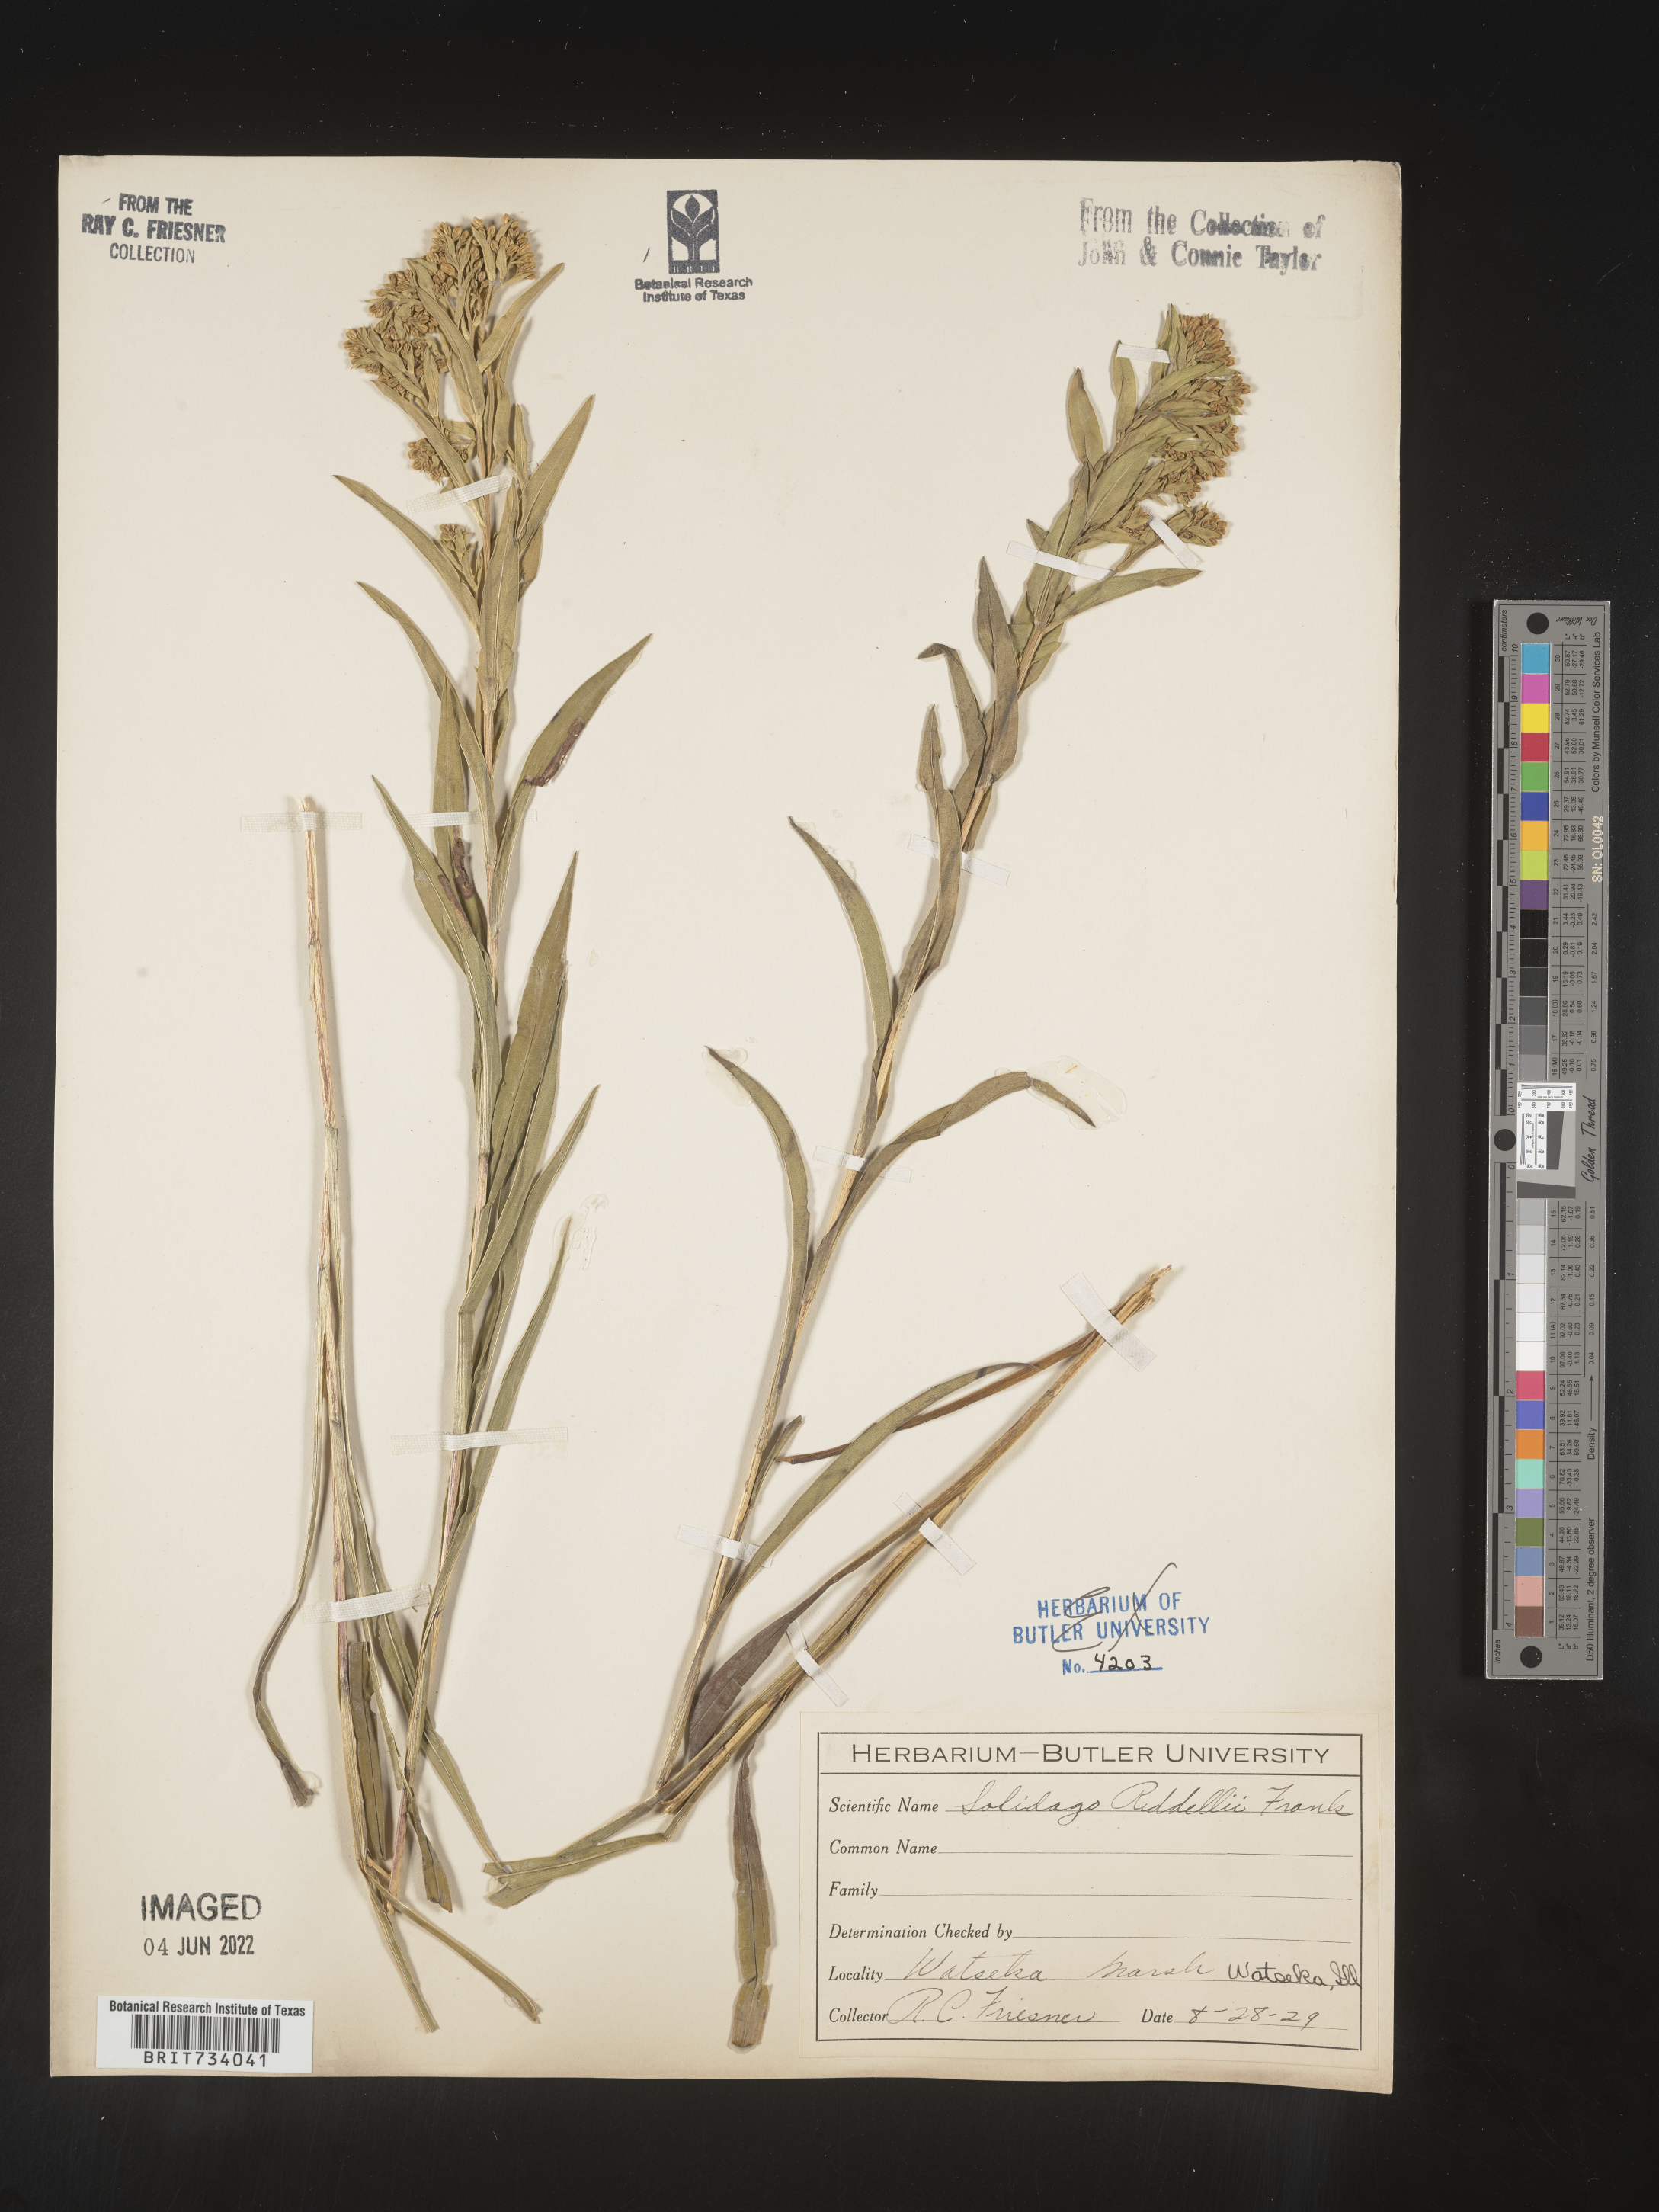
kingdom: Plantae
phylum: Tracheophyta
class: Magnoliopsida
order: Asterales
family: Asteraceae
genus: Solidago
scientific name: Solidago riddellii
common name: Riddell's goldenrod
